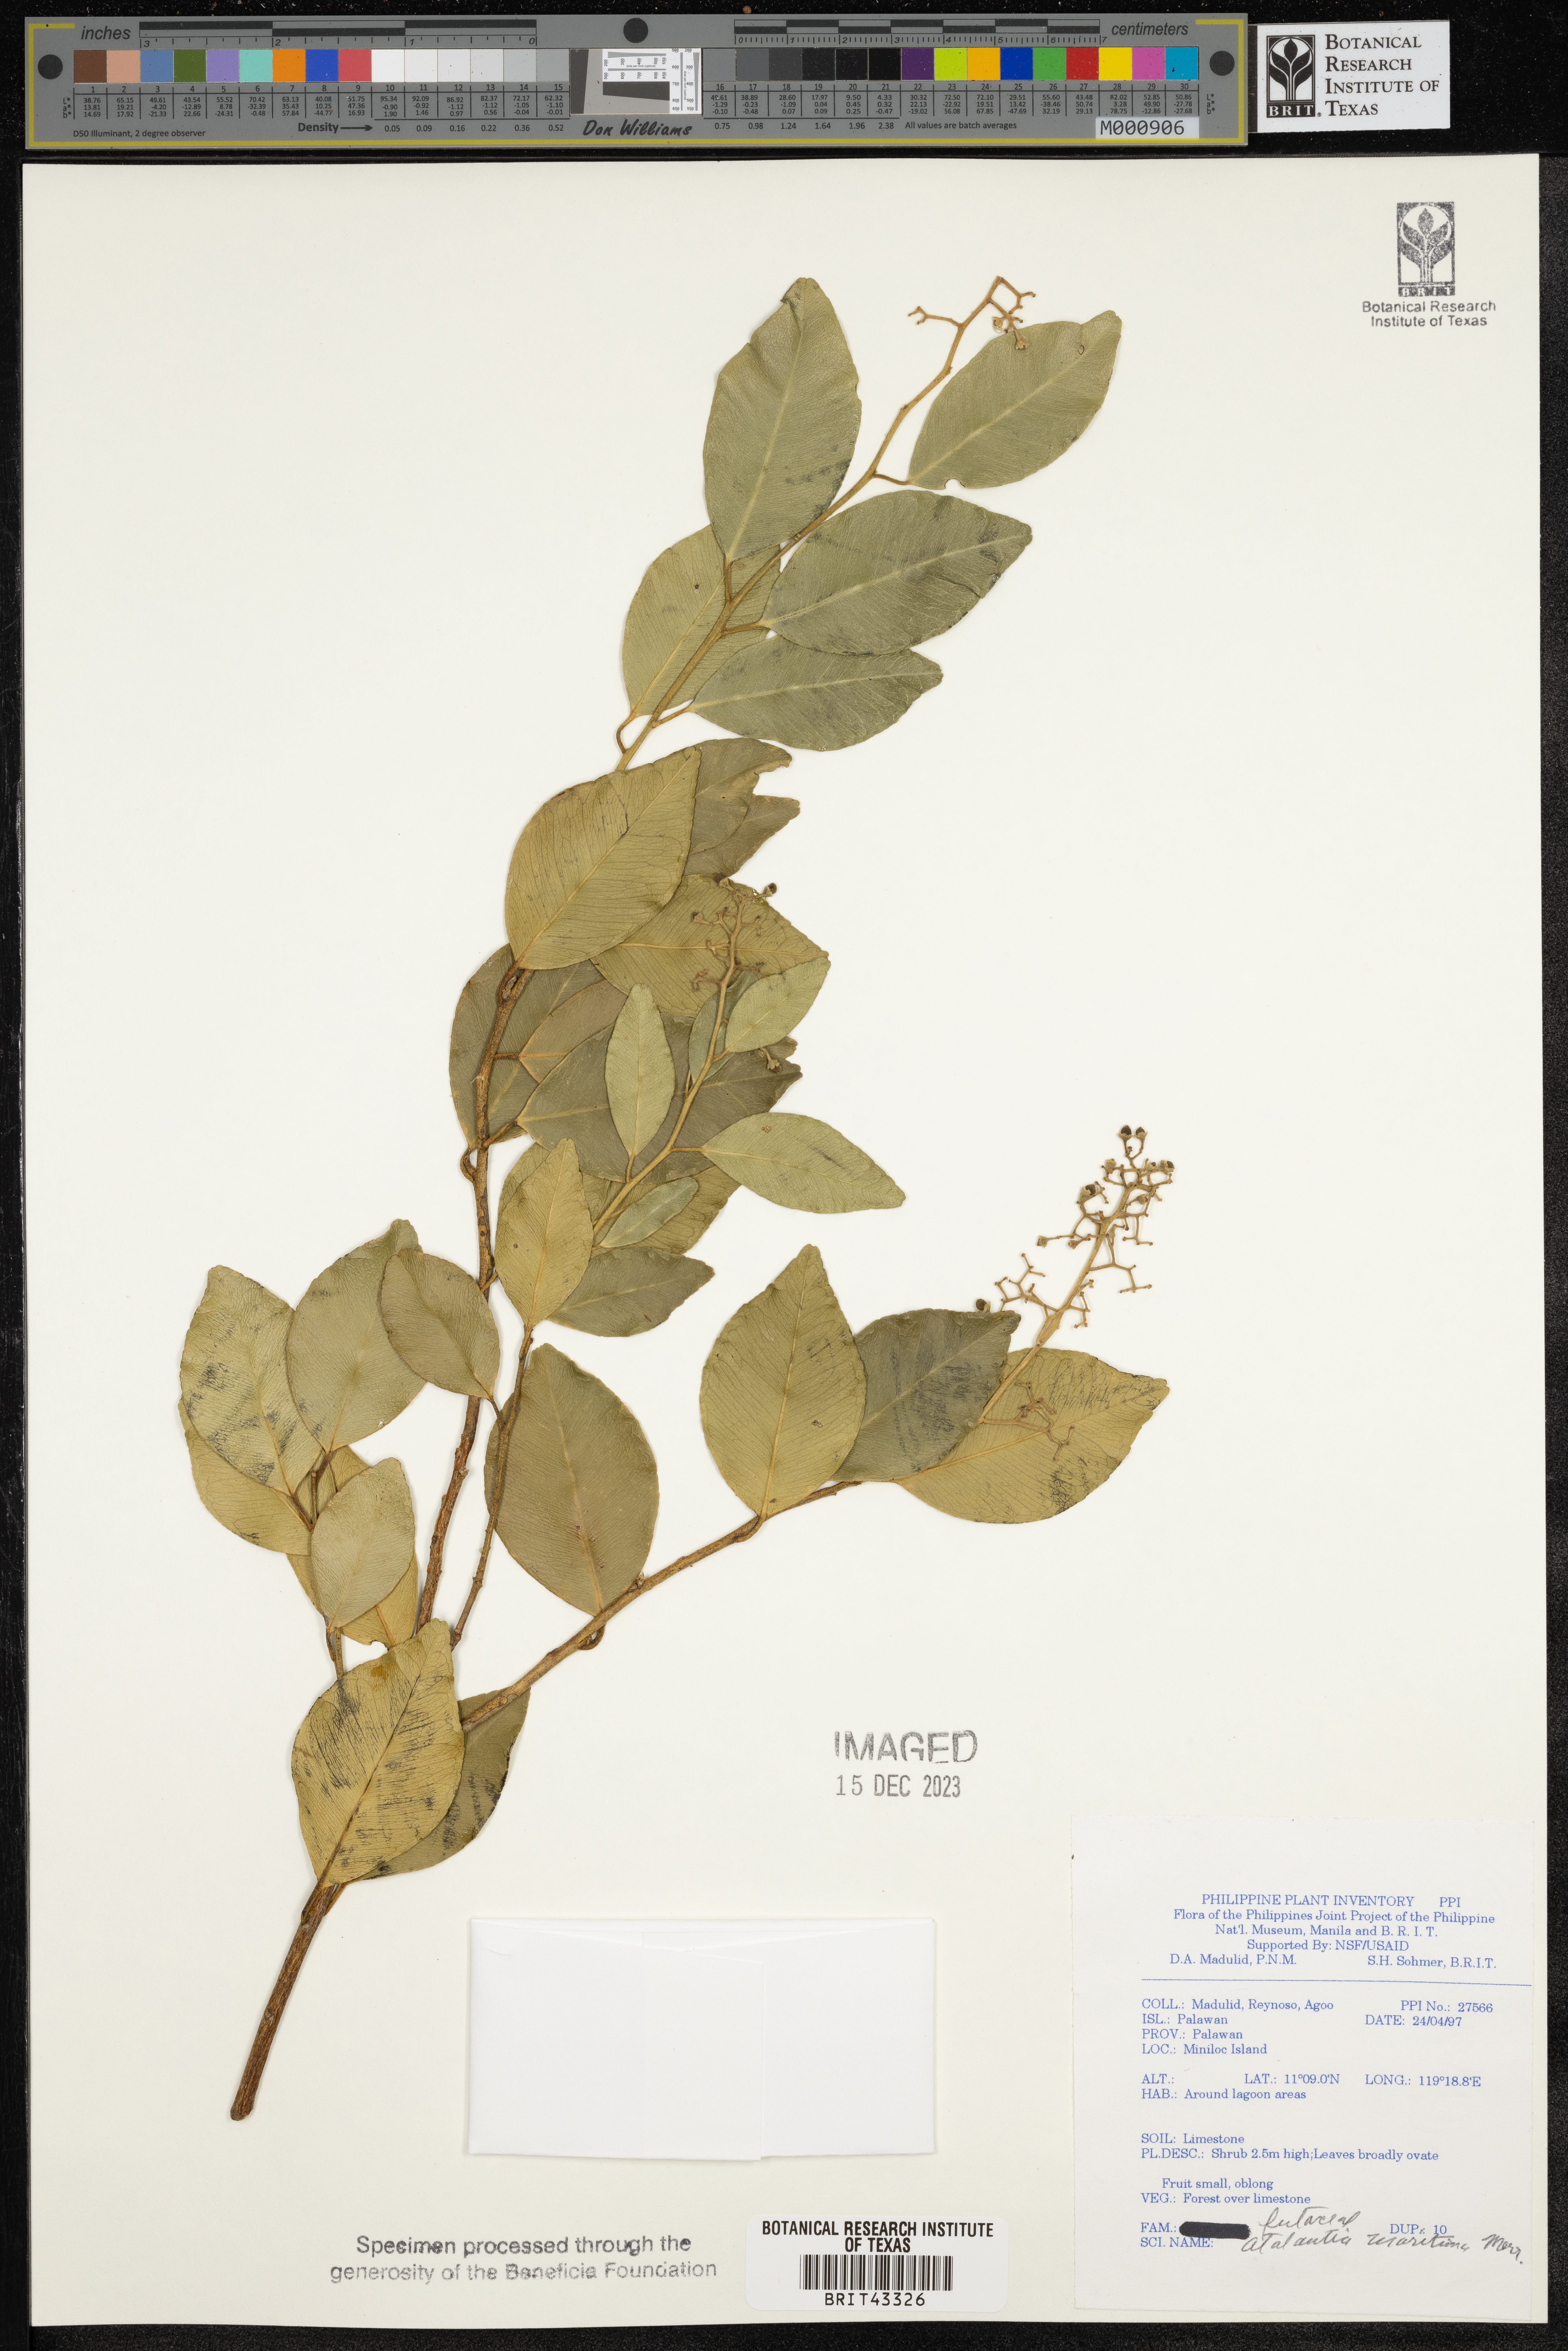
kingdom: Plantae
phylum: Tracheophyta
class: Magnoliopsida
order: Sapindales
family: Rutaceae
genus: Atalantia
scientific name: Atalantia paniculata
